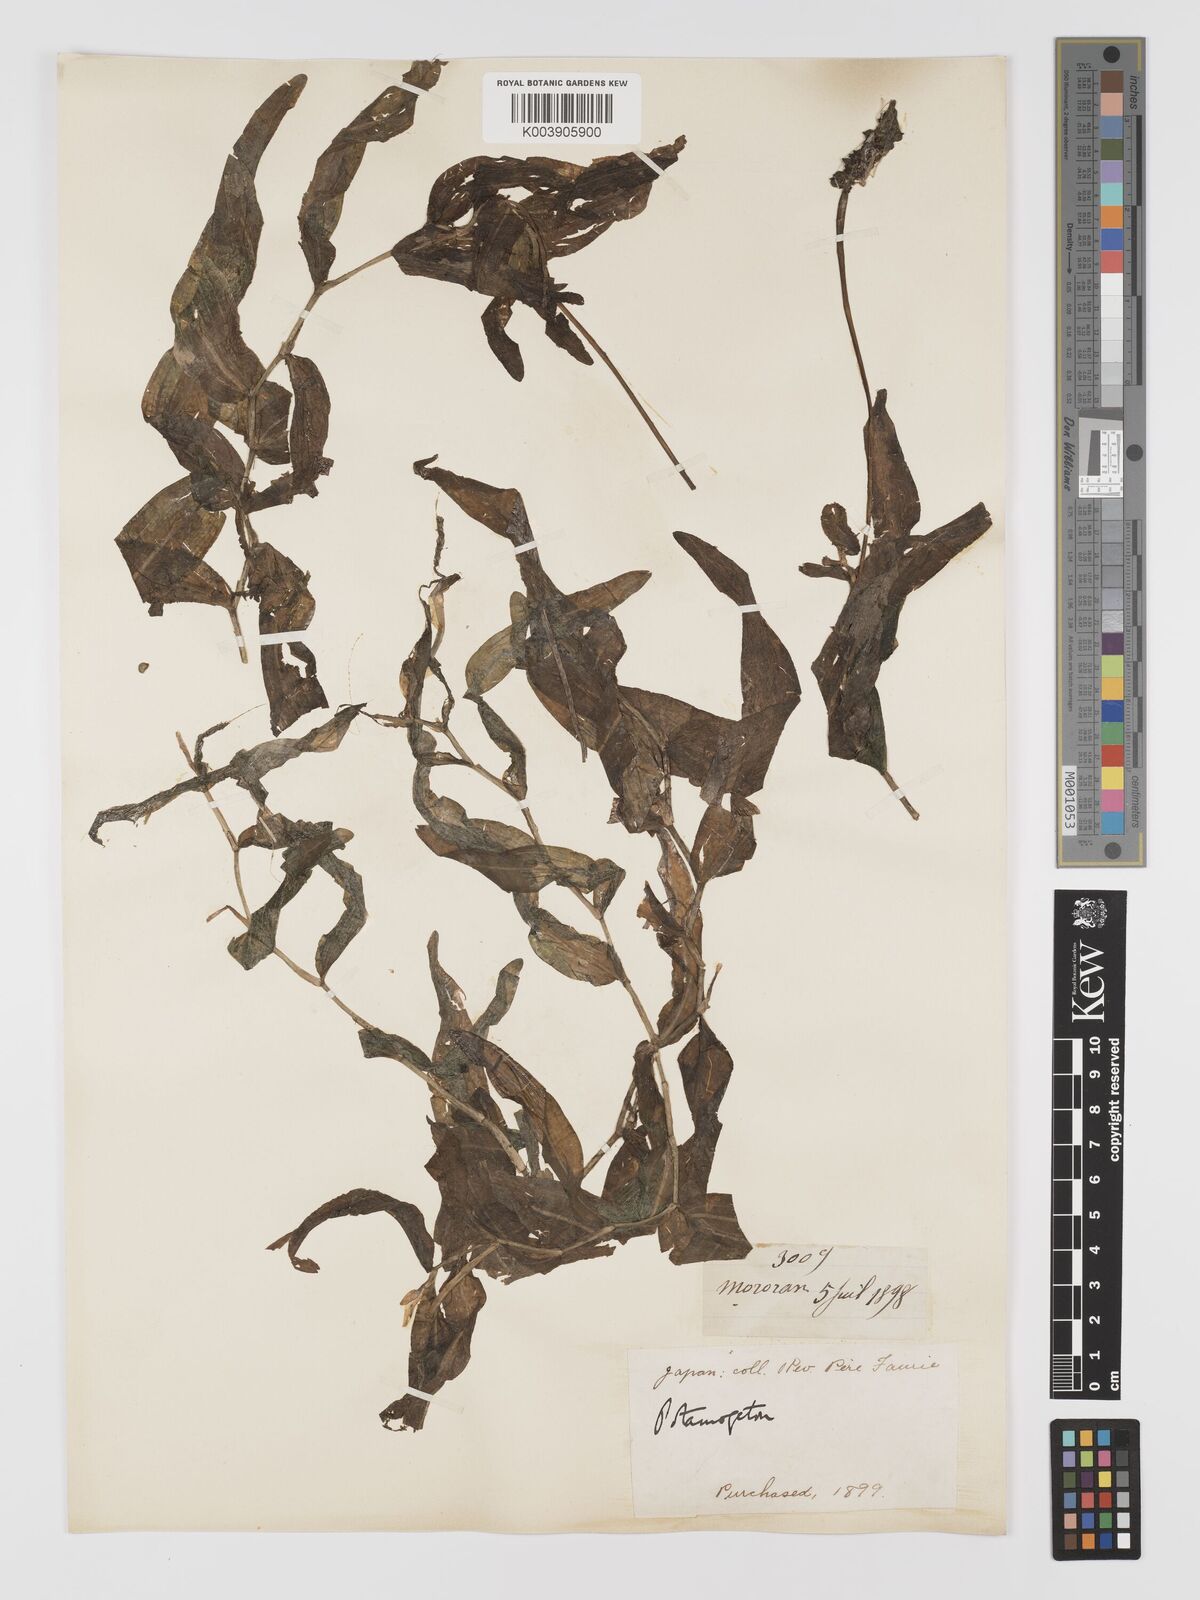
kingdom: Plantae
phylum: Tracheophyta
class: Liliopsida
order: Alismatales
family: Potamogetonaceae
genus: Potamogeton
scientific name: Potamogeton praelongus
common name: Long-stalked pondweed
